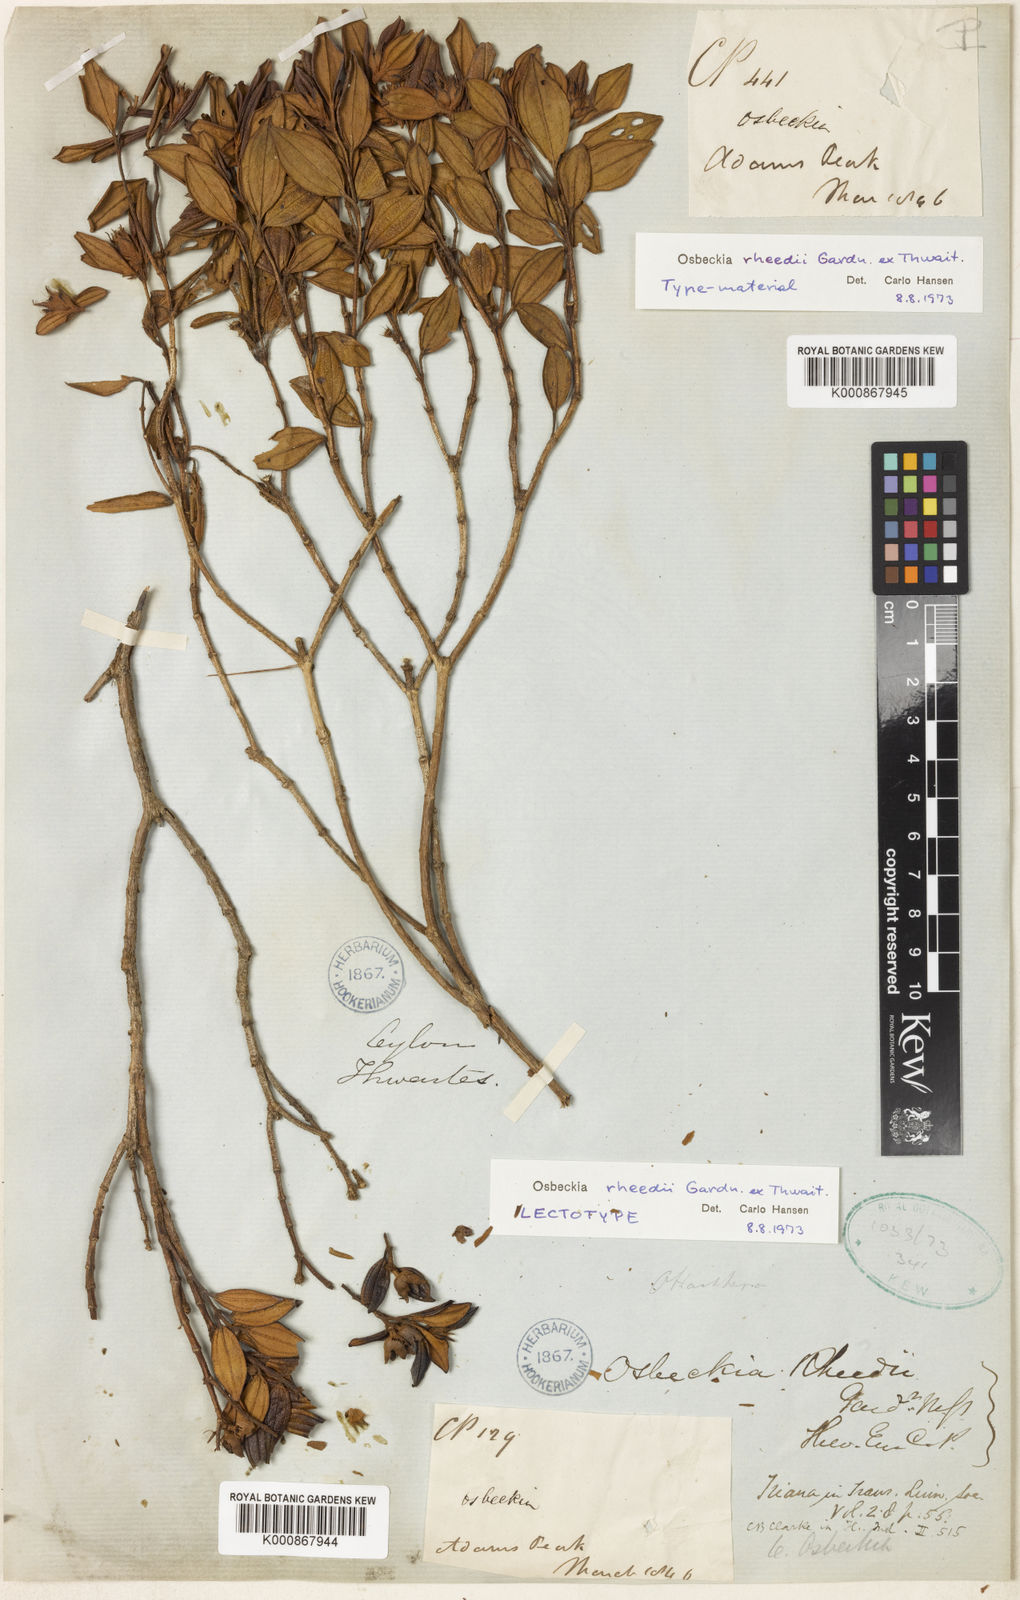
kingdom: Plantae
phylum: Tracheophyta
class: Magnoliopsida
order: Myrtales
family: Melastomataceae
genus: Osbeckia
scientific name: Osbeckia rheedei
